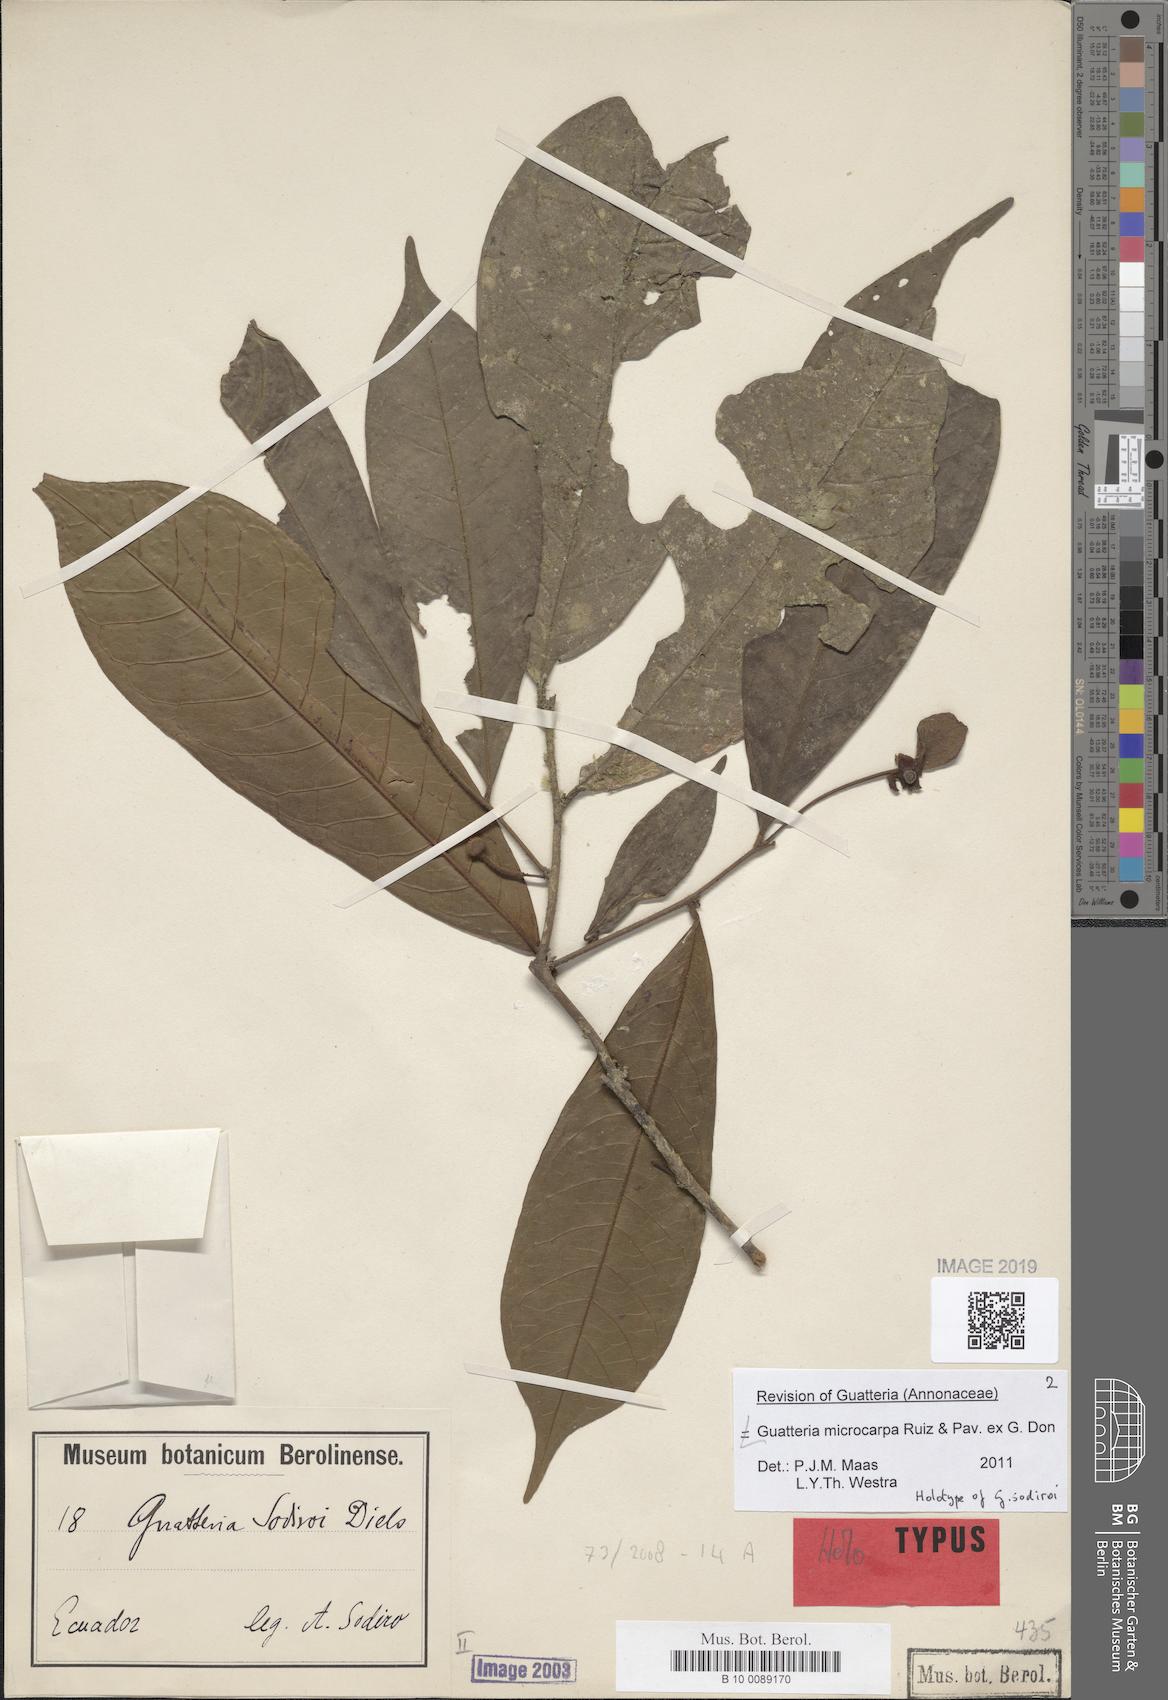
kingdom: Plantae
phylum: Tracheophyta
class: Magnoliopsida
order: Magnoliales
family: Annonaceae
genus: Guatteria
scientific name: Guatteria sodiroi
